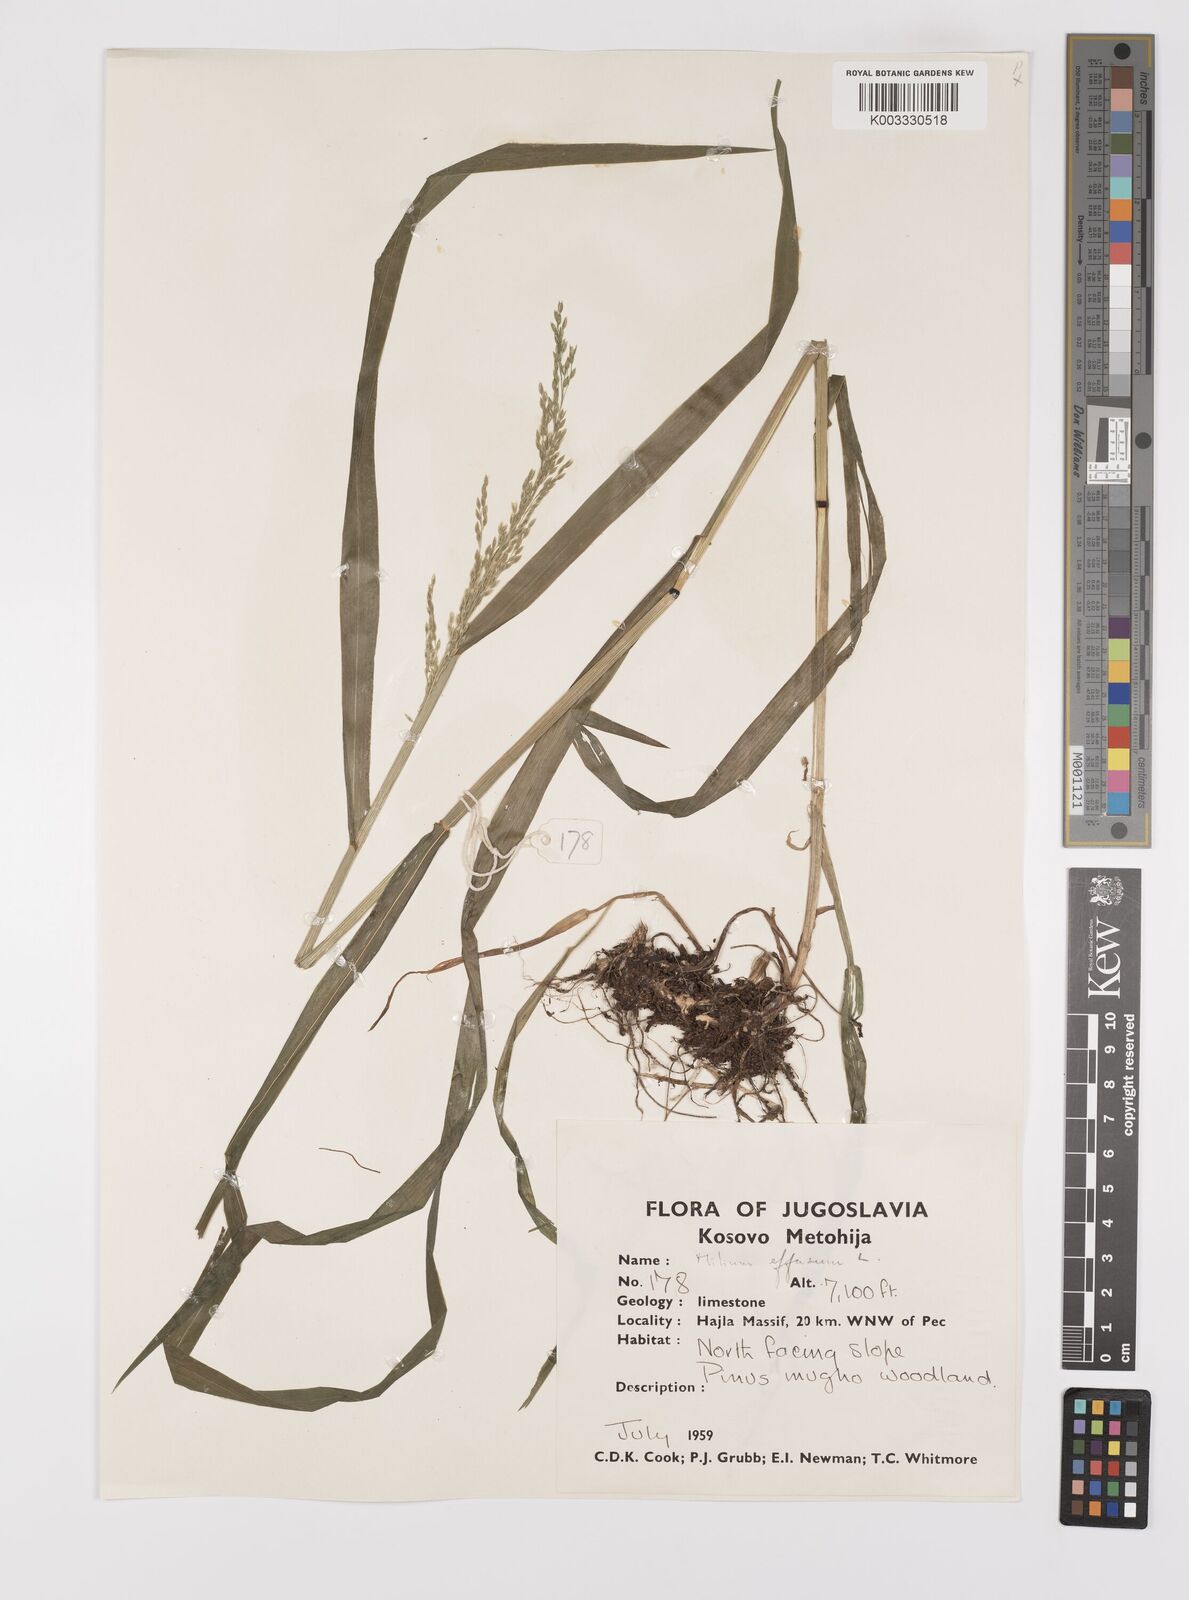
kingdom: Plantae
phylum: Tracheophyta
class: Liliopsida
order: Poales
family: Poaceae
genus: Milium
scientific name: Milium
